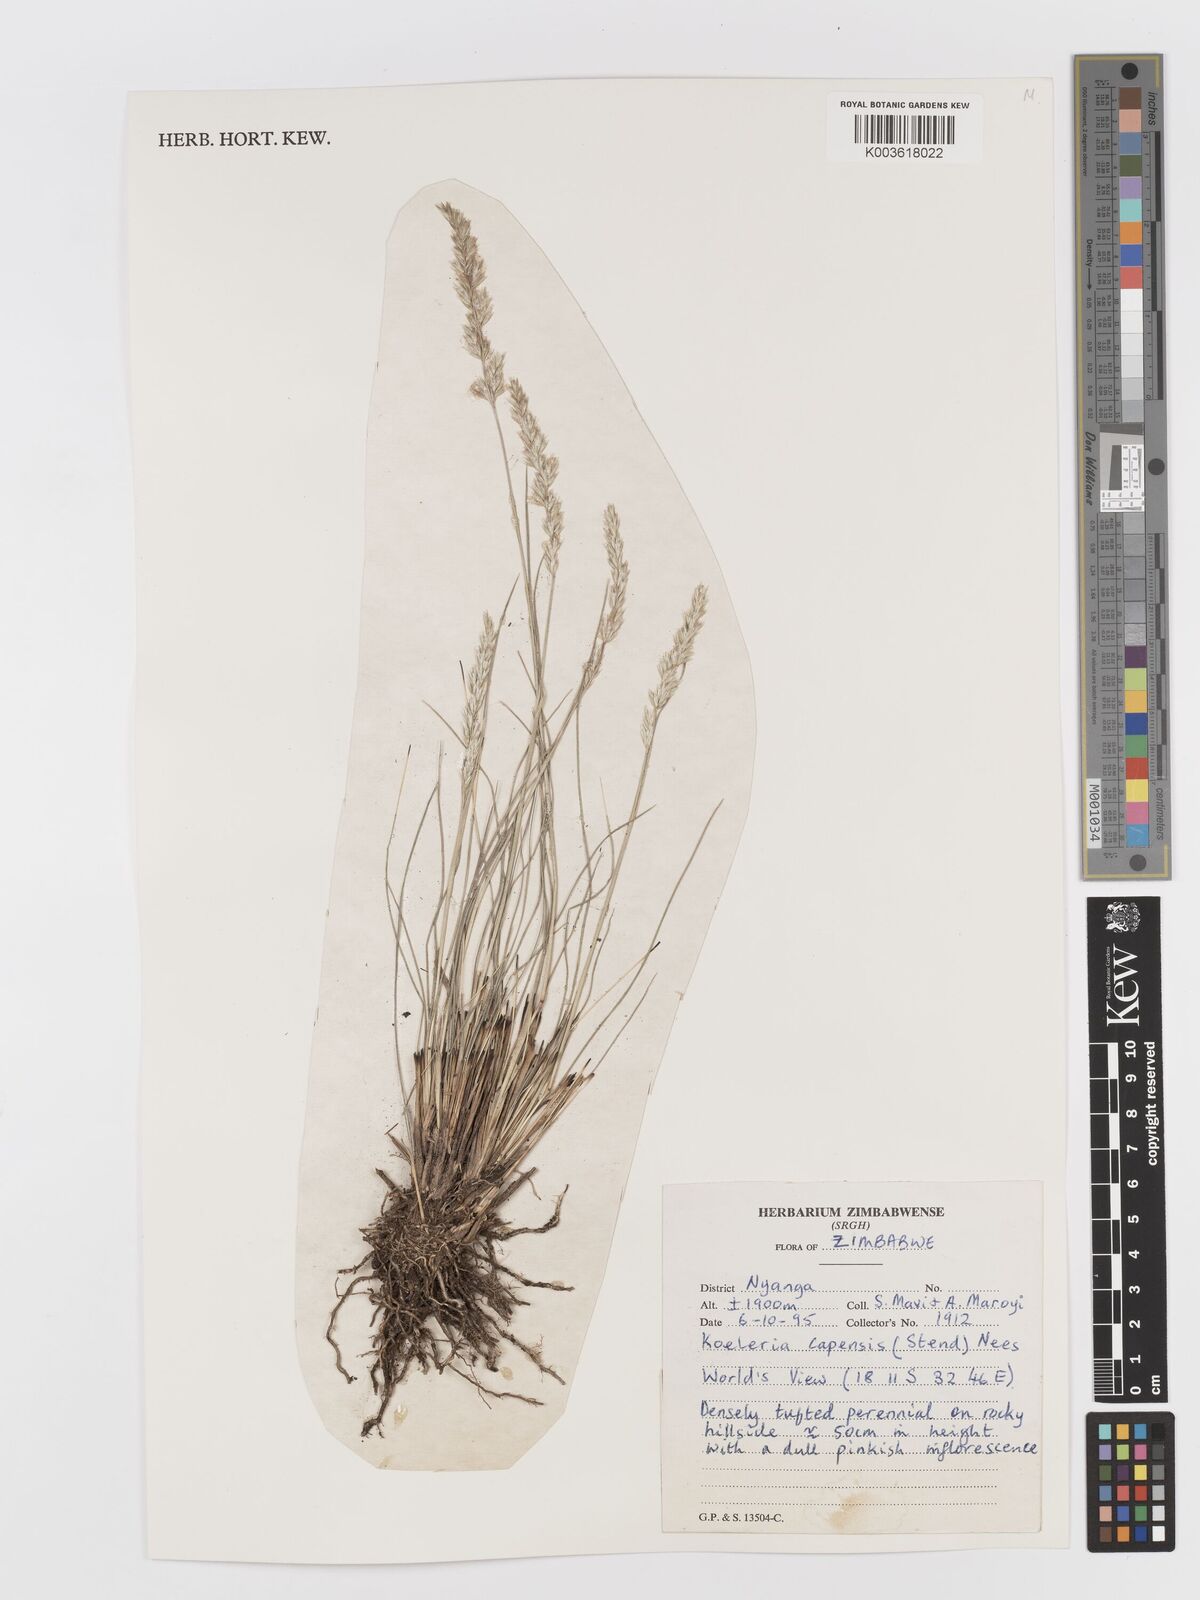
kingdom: Plantae
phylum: Tracheophyta
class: Liliopsida
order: Poales
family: Poaceae
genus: Koeleria
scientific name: Koeleria capensis
